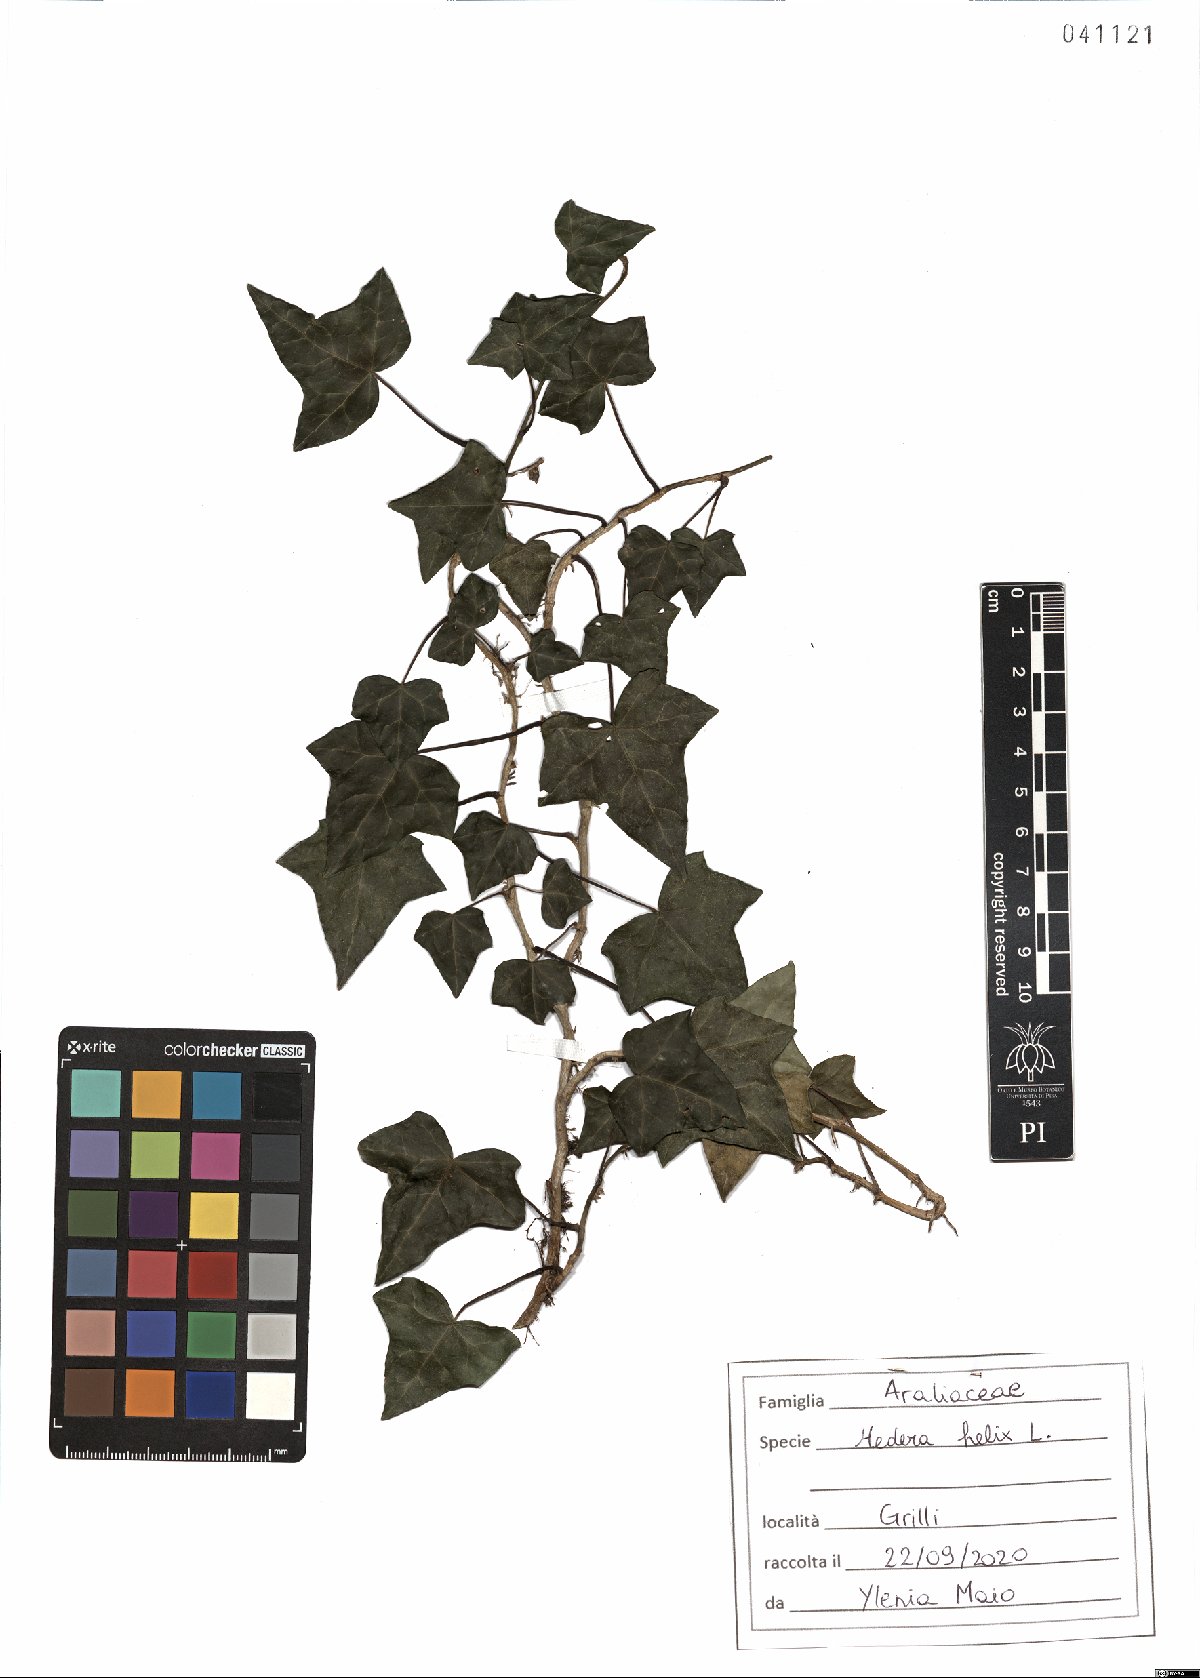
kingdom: Plantae
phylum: Tracheophyta
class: Magnoliopsida
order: Apiales
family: Araliaceae
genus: Hedera
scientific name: Hedera helix
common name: Ivy
